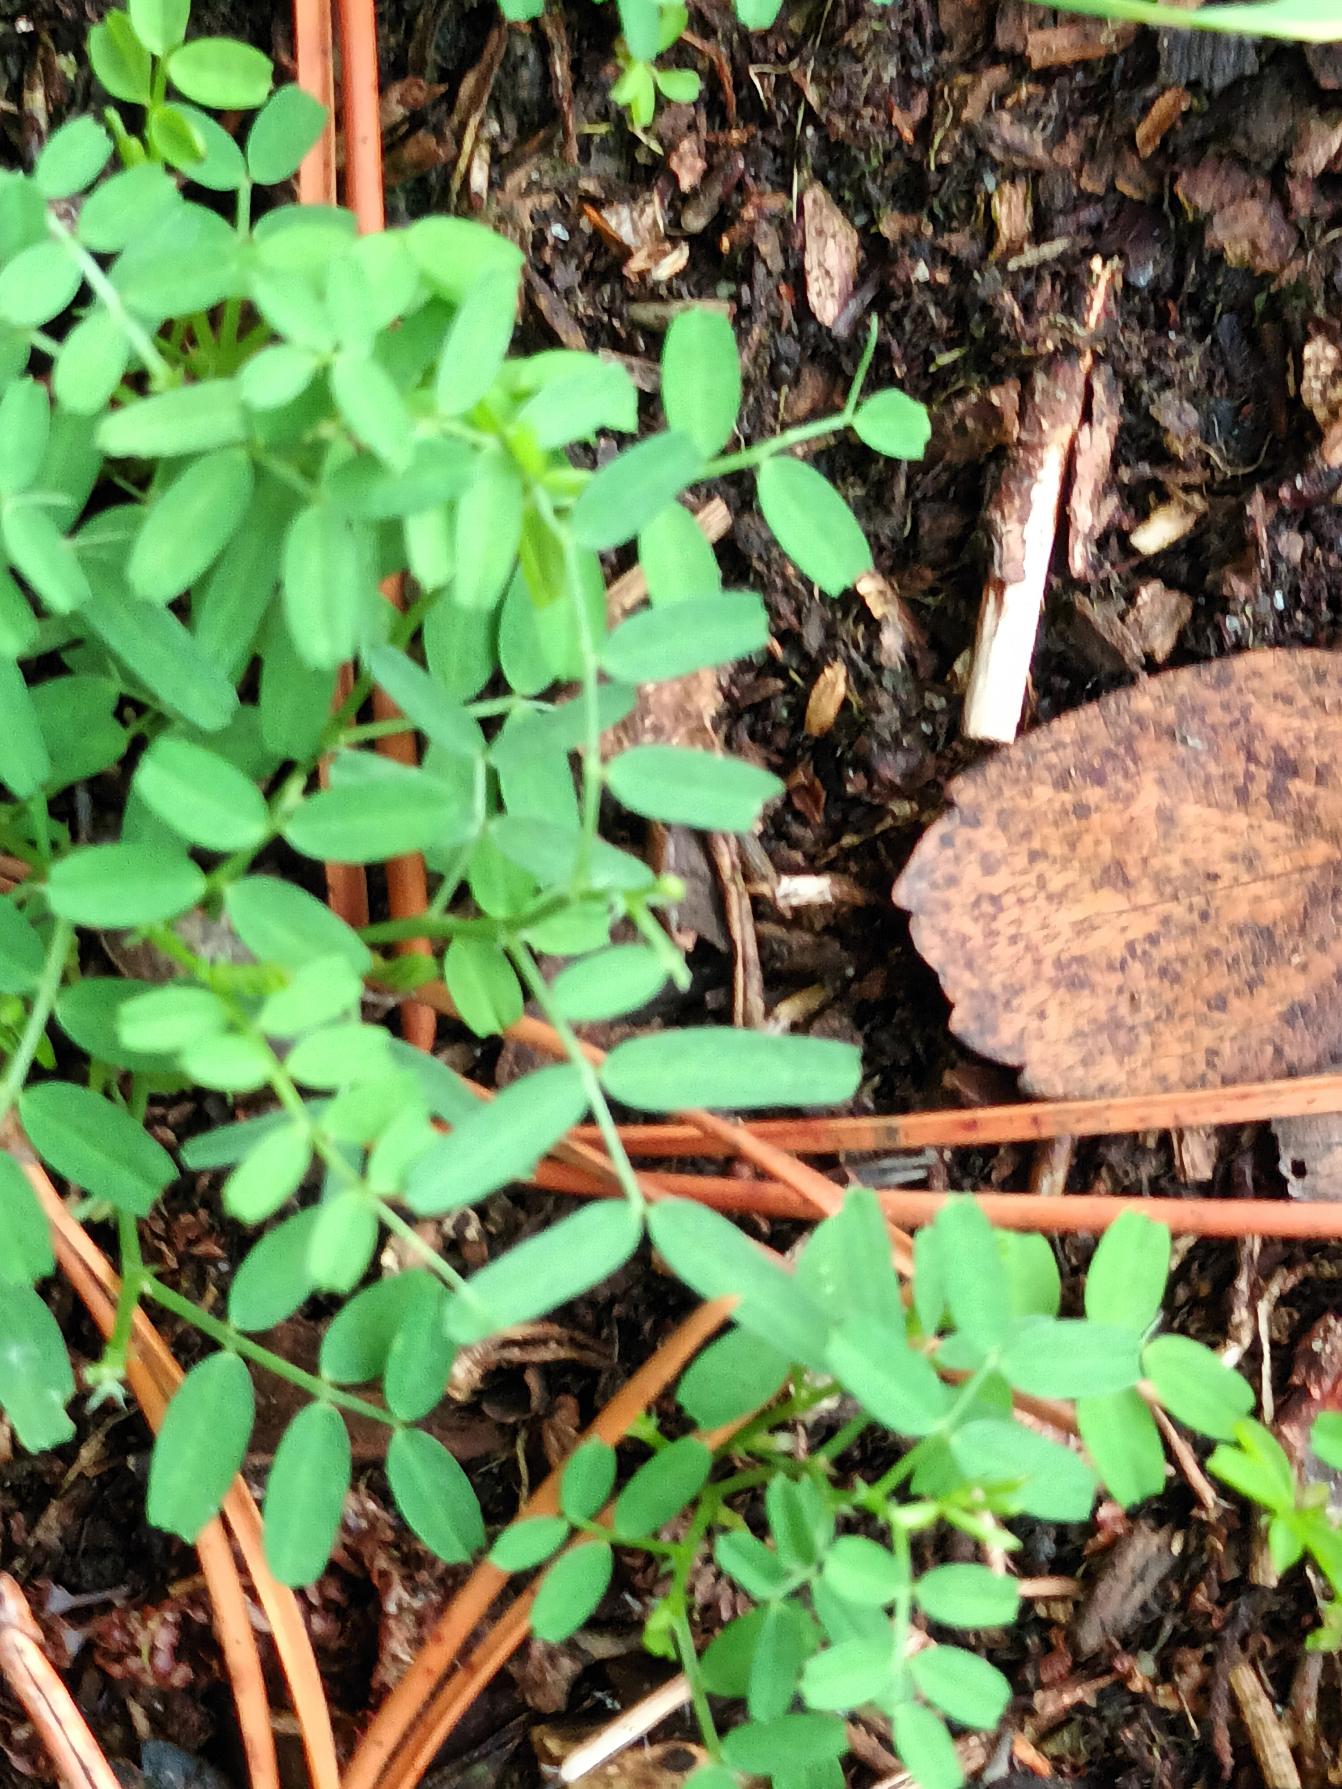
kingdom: Plantae
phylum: Tracheophyta
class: Magnoliopsida
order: Fabales
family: Fabaceae
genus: Vicia
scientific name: Vicia hirsuta
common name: Tofrøet vikke
